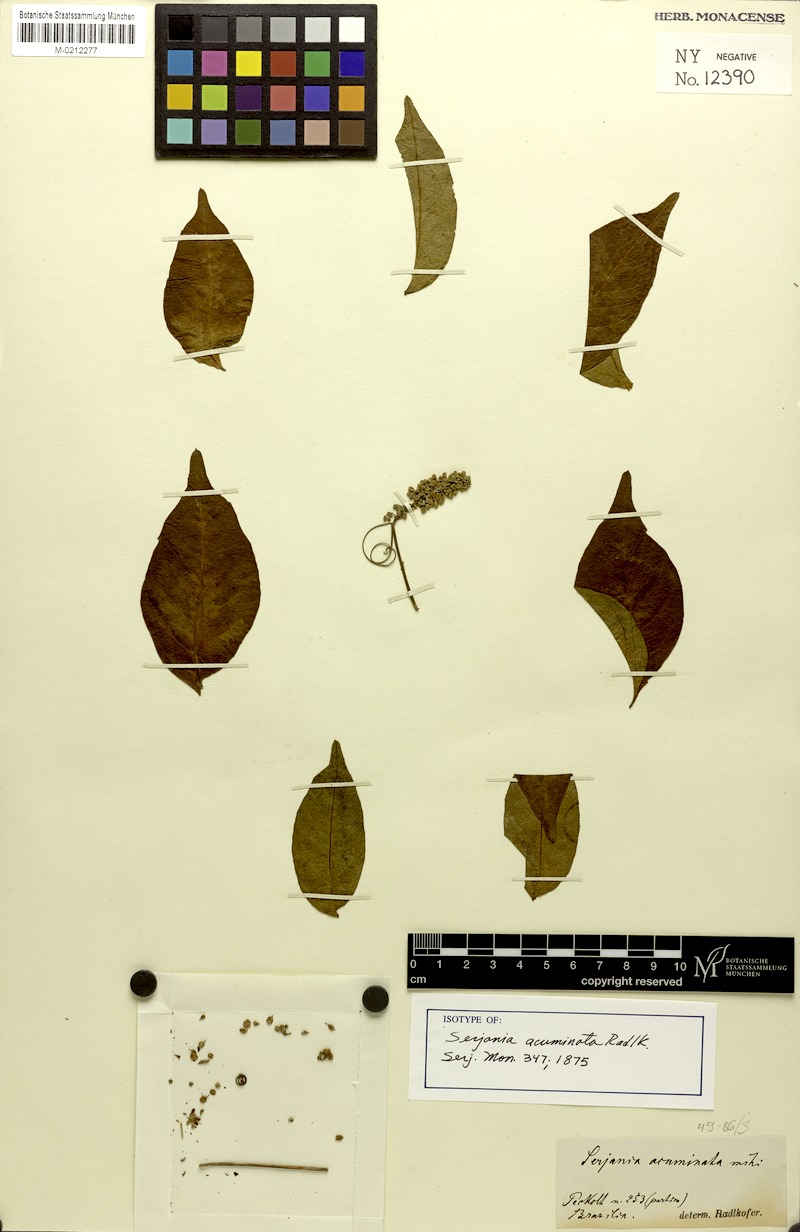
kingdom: Plantae
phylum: Tracheophyta
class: Magnoliopsida
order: Sapindales
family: Sapindaceae
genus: Serjania
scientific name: Serjania acuminata
